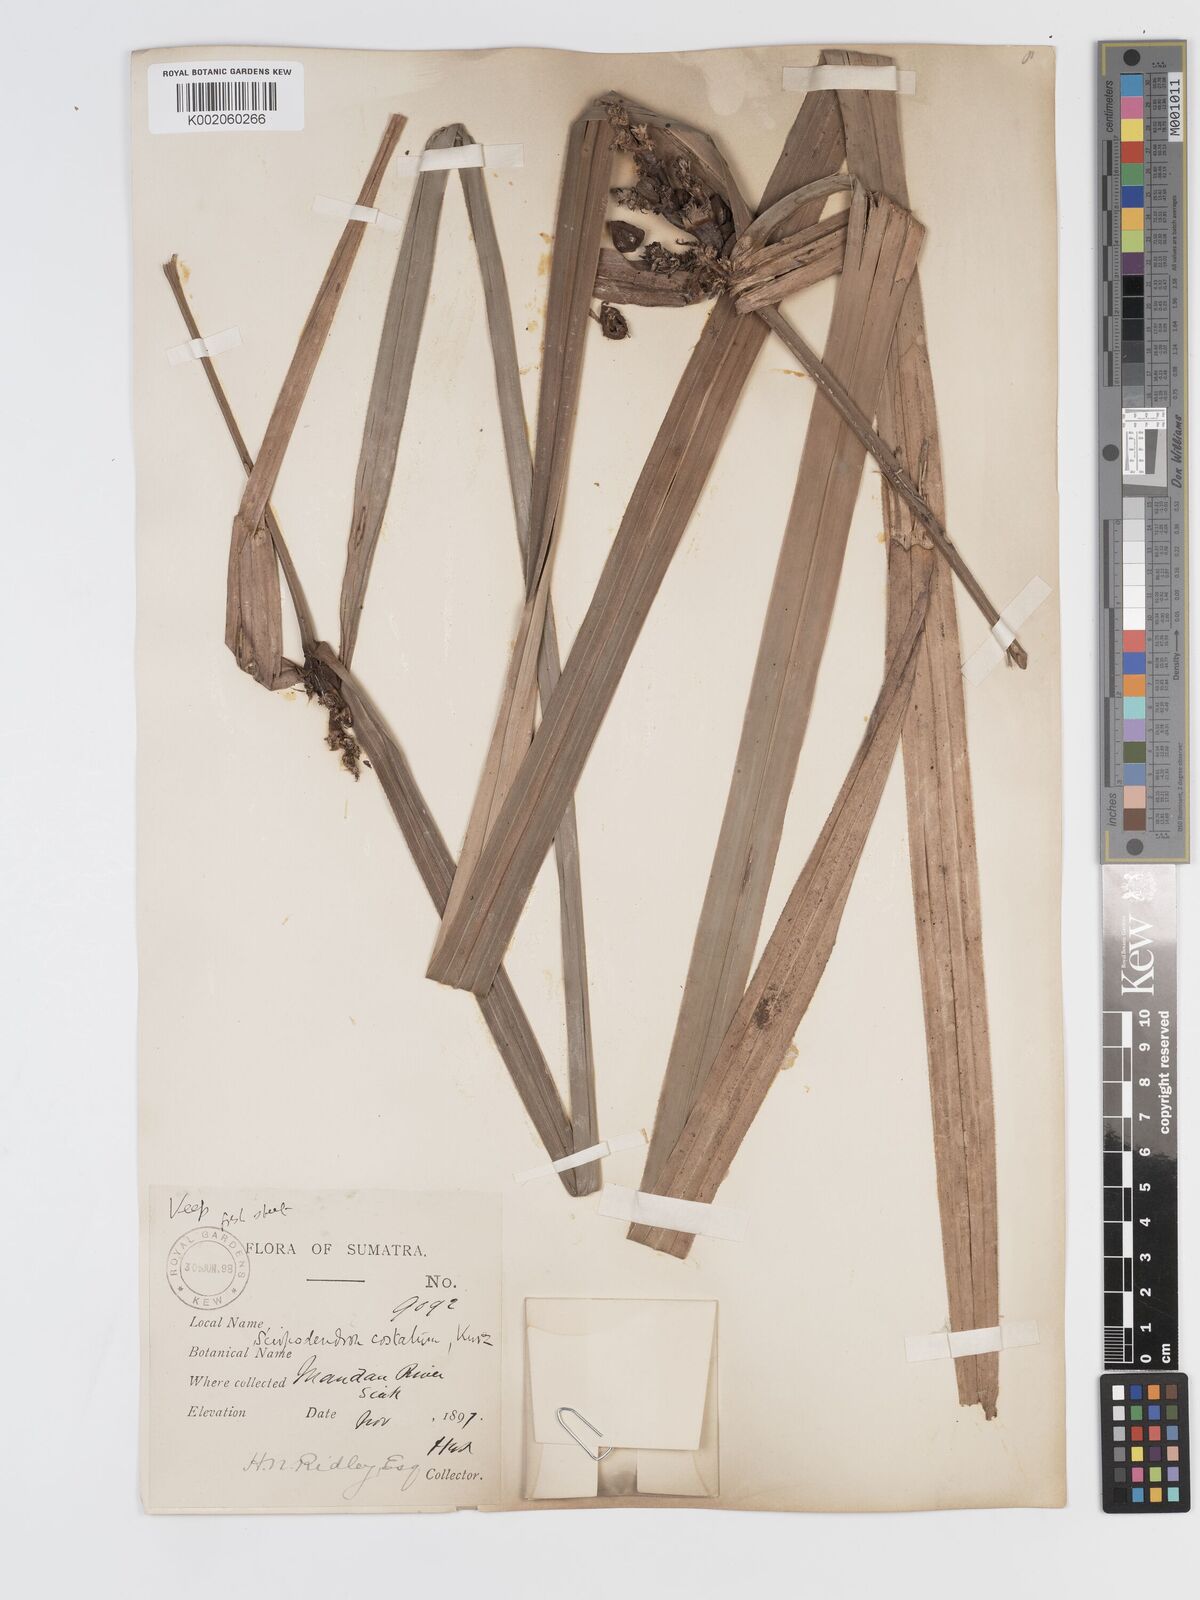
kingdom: Plantae
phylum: Tracheophyta
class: Liliopsida
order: Poales
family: Cyperaceae
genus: Scirpodendron
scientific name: Scirpodendron ghaeri
